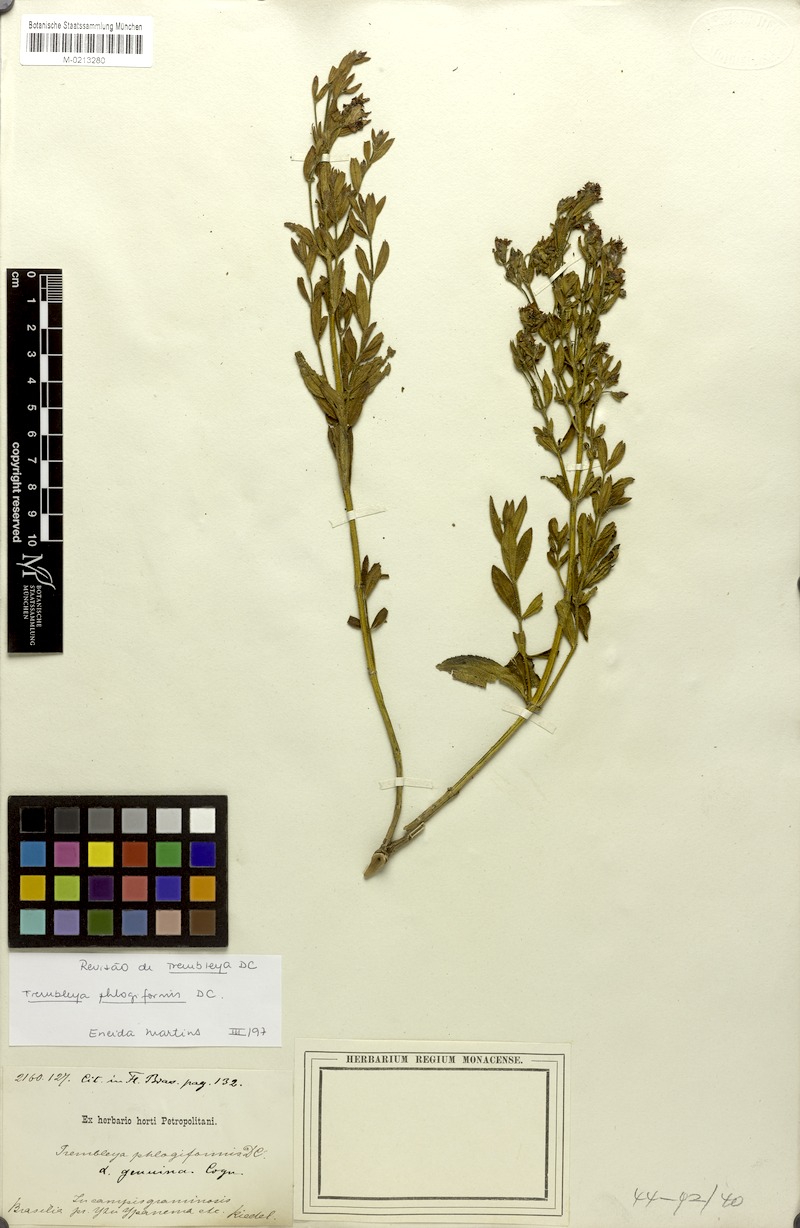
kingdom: Plantae
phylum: Tracheophyta
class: Magnoliopsida
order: Myrtales
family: Melastomataceae
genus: Microlicia
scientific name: Microlicia phlogiformis
